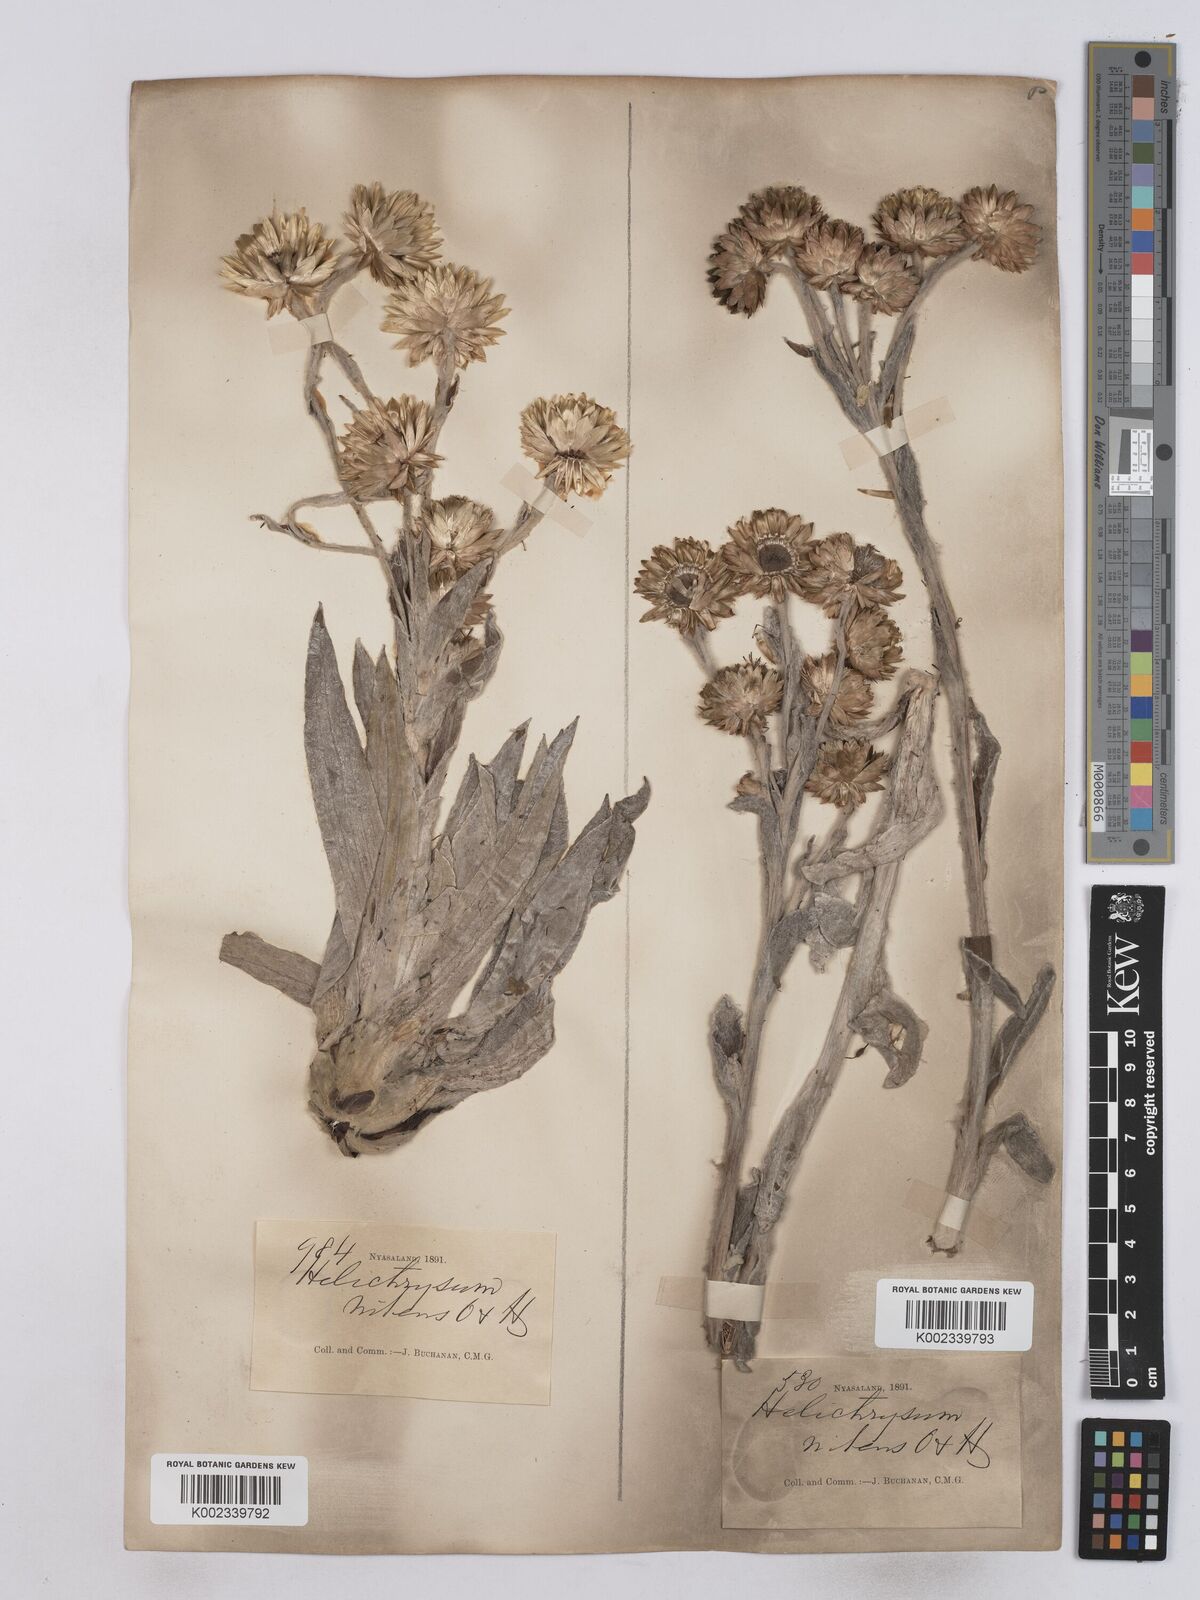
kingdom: Plantae
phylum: Tracheophyta
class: Magnoliopsida
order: Asterales
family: Asteraceae
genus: Helichrysum
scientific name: Helichrysum nitens
